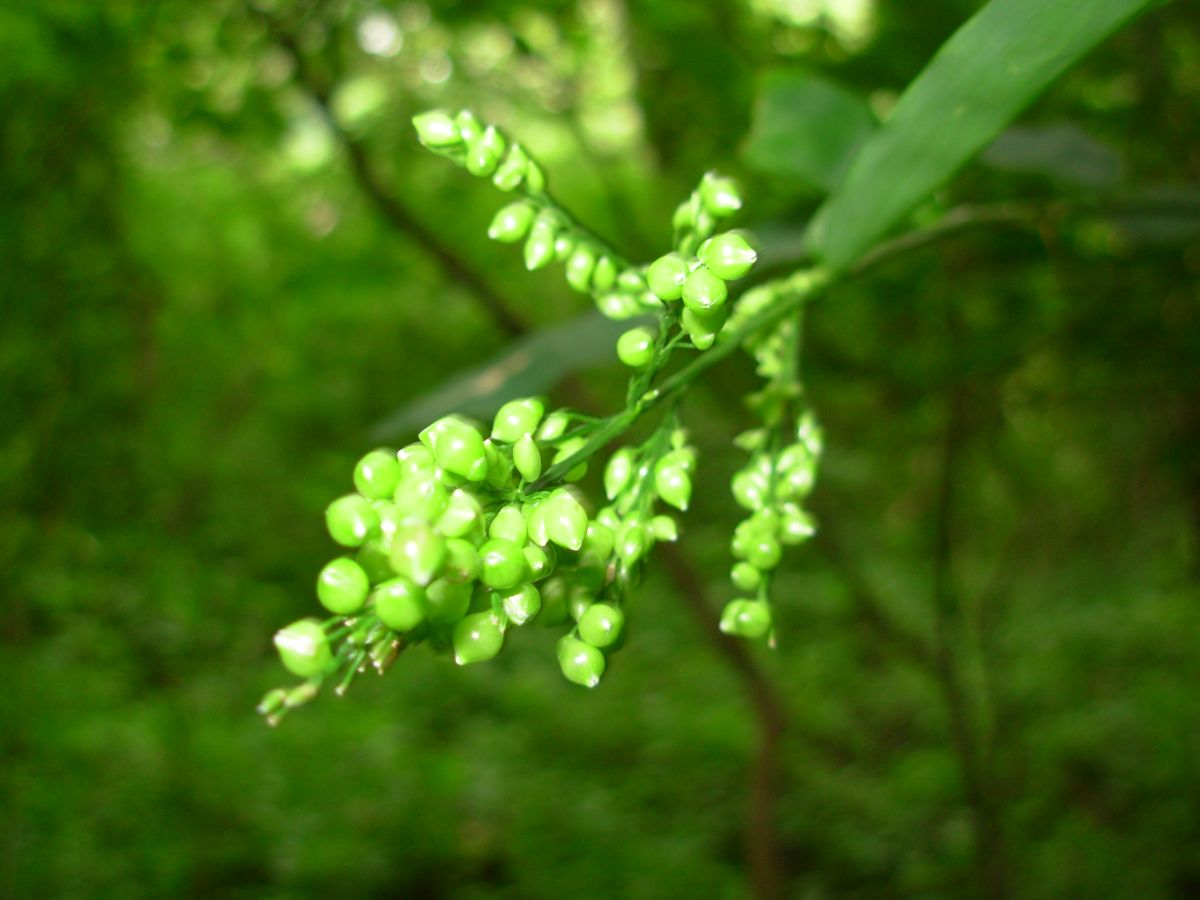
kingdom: Plantae
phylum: Tracheophyta
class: Liliopsida
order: Poales
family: Poaceae
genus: Lasiacis
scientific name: Lasiacis ruscifolia
